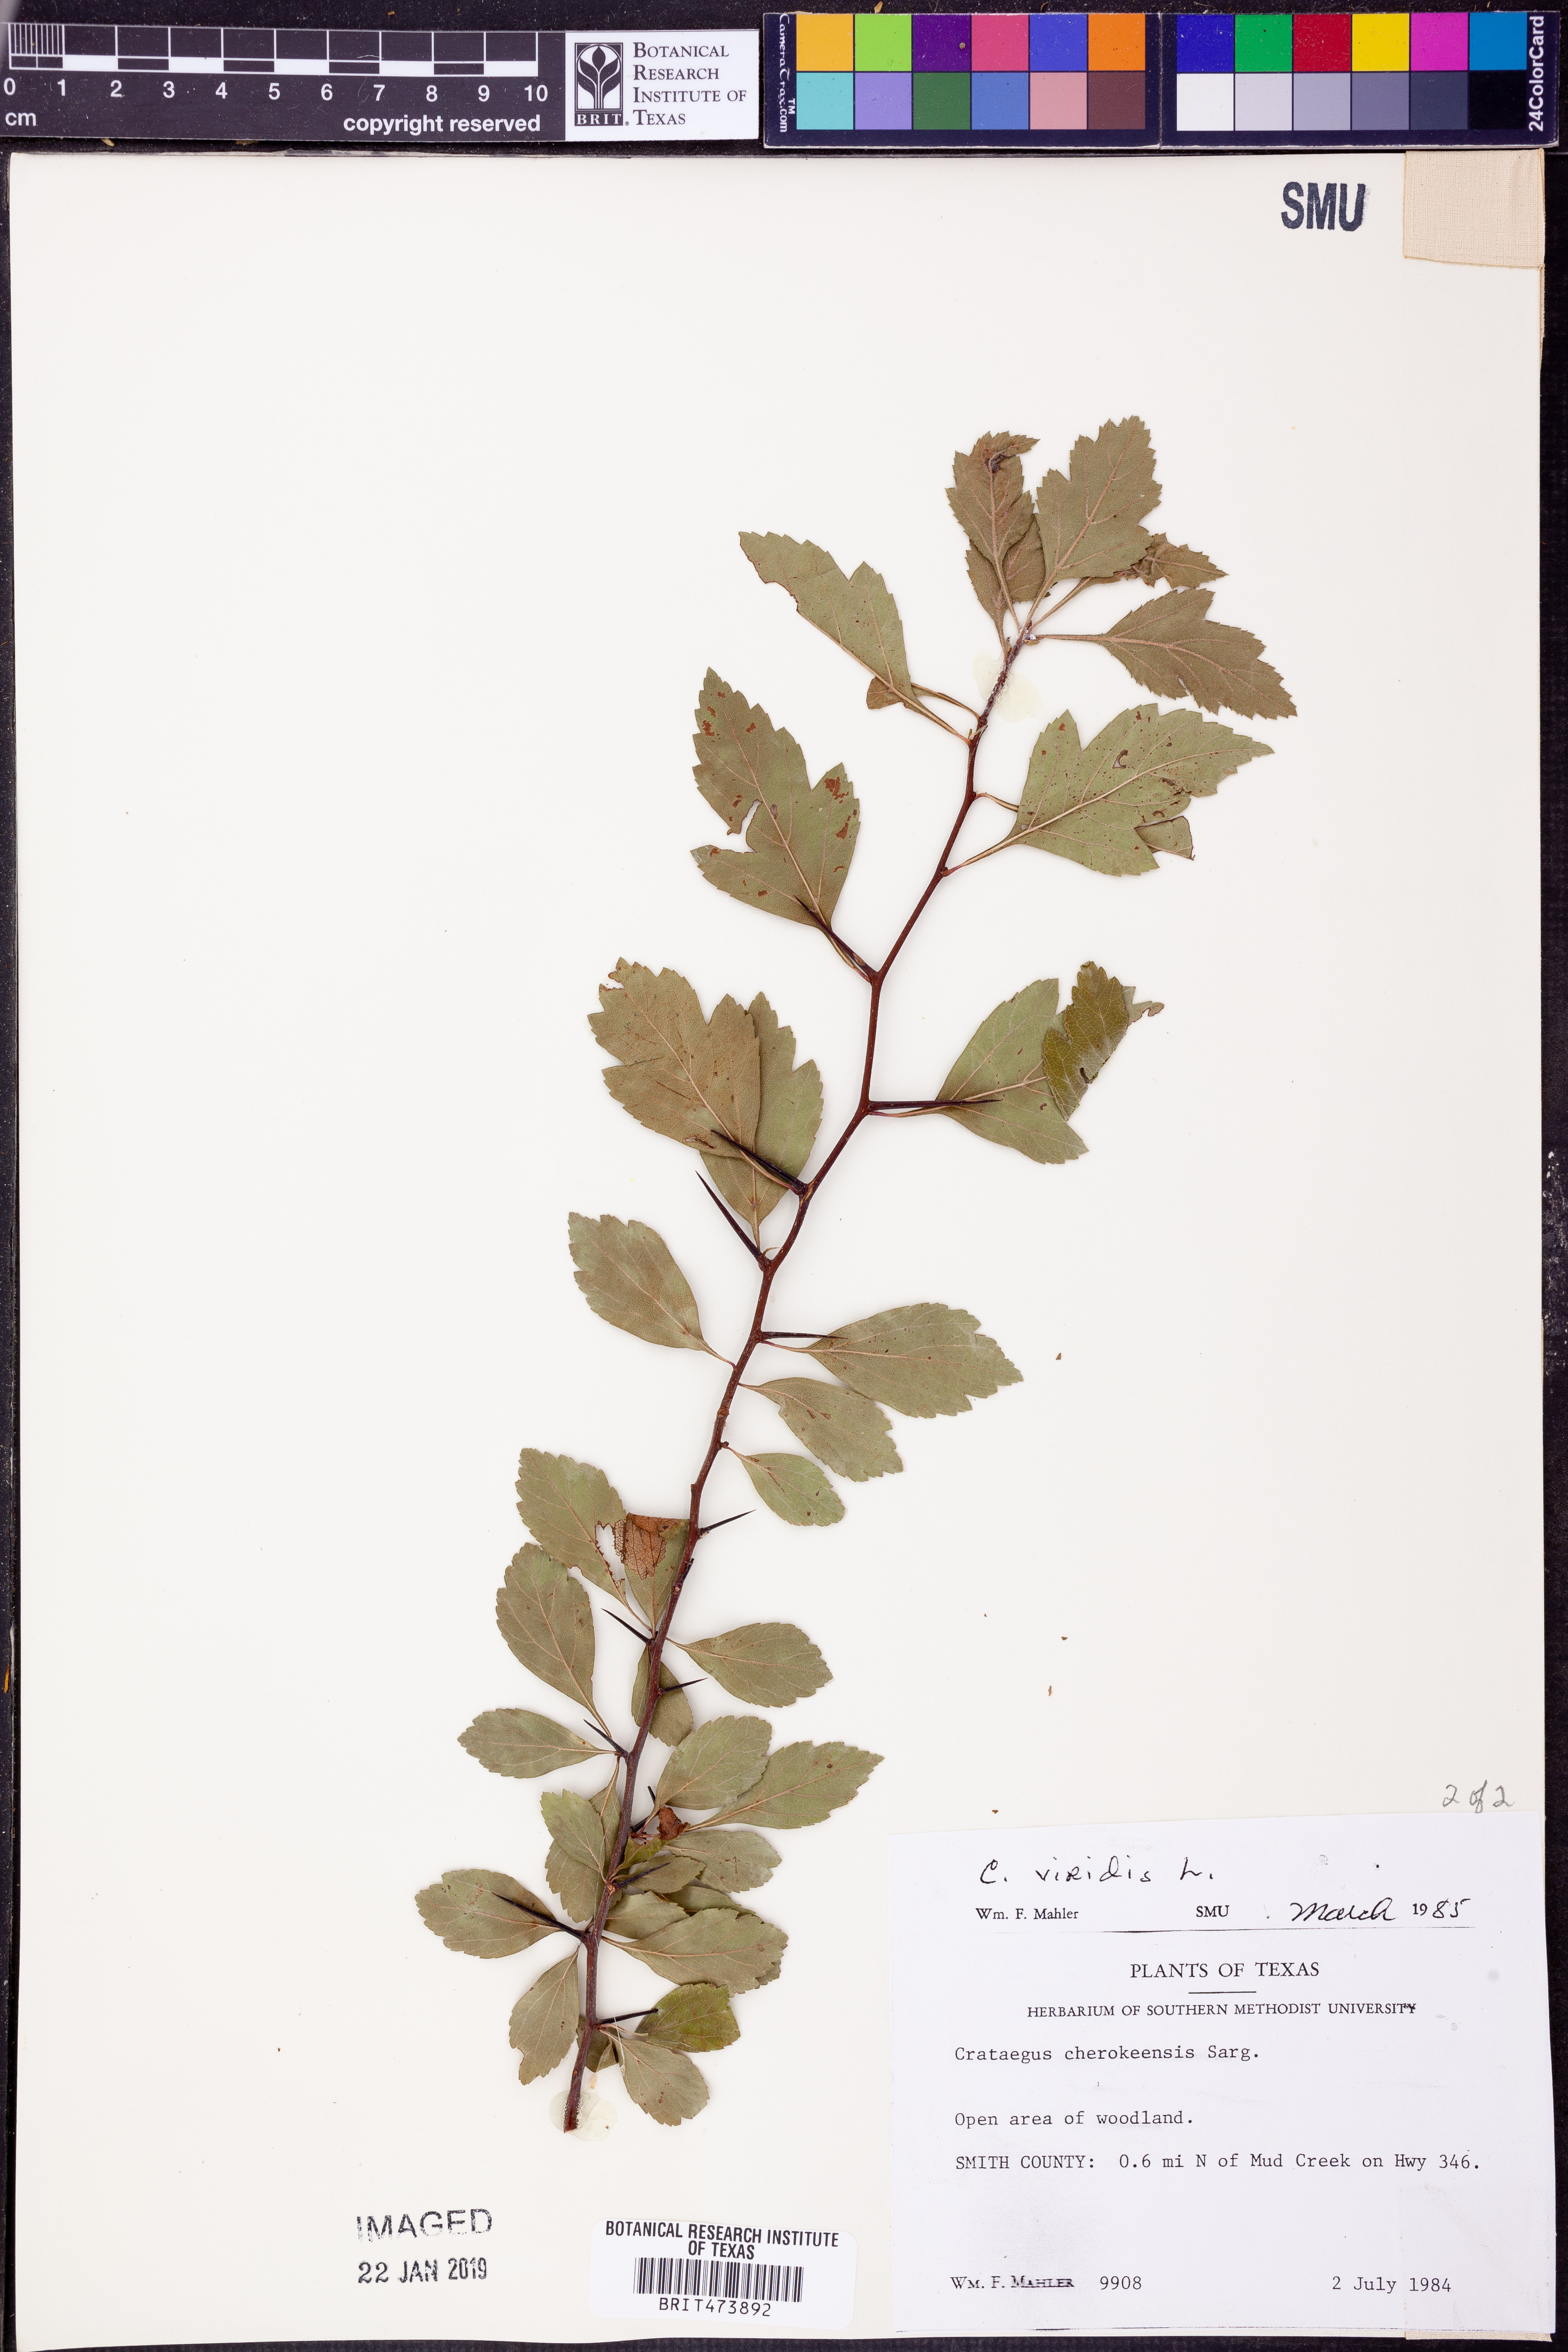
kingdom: Plantae
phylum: Tracheophyta
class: Magnoliopsida
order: Rosales
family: Rosaceae
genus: Crataegus
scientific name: Crataegus viridis
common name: Southernthorn
